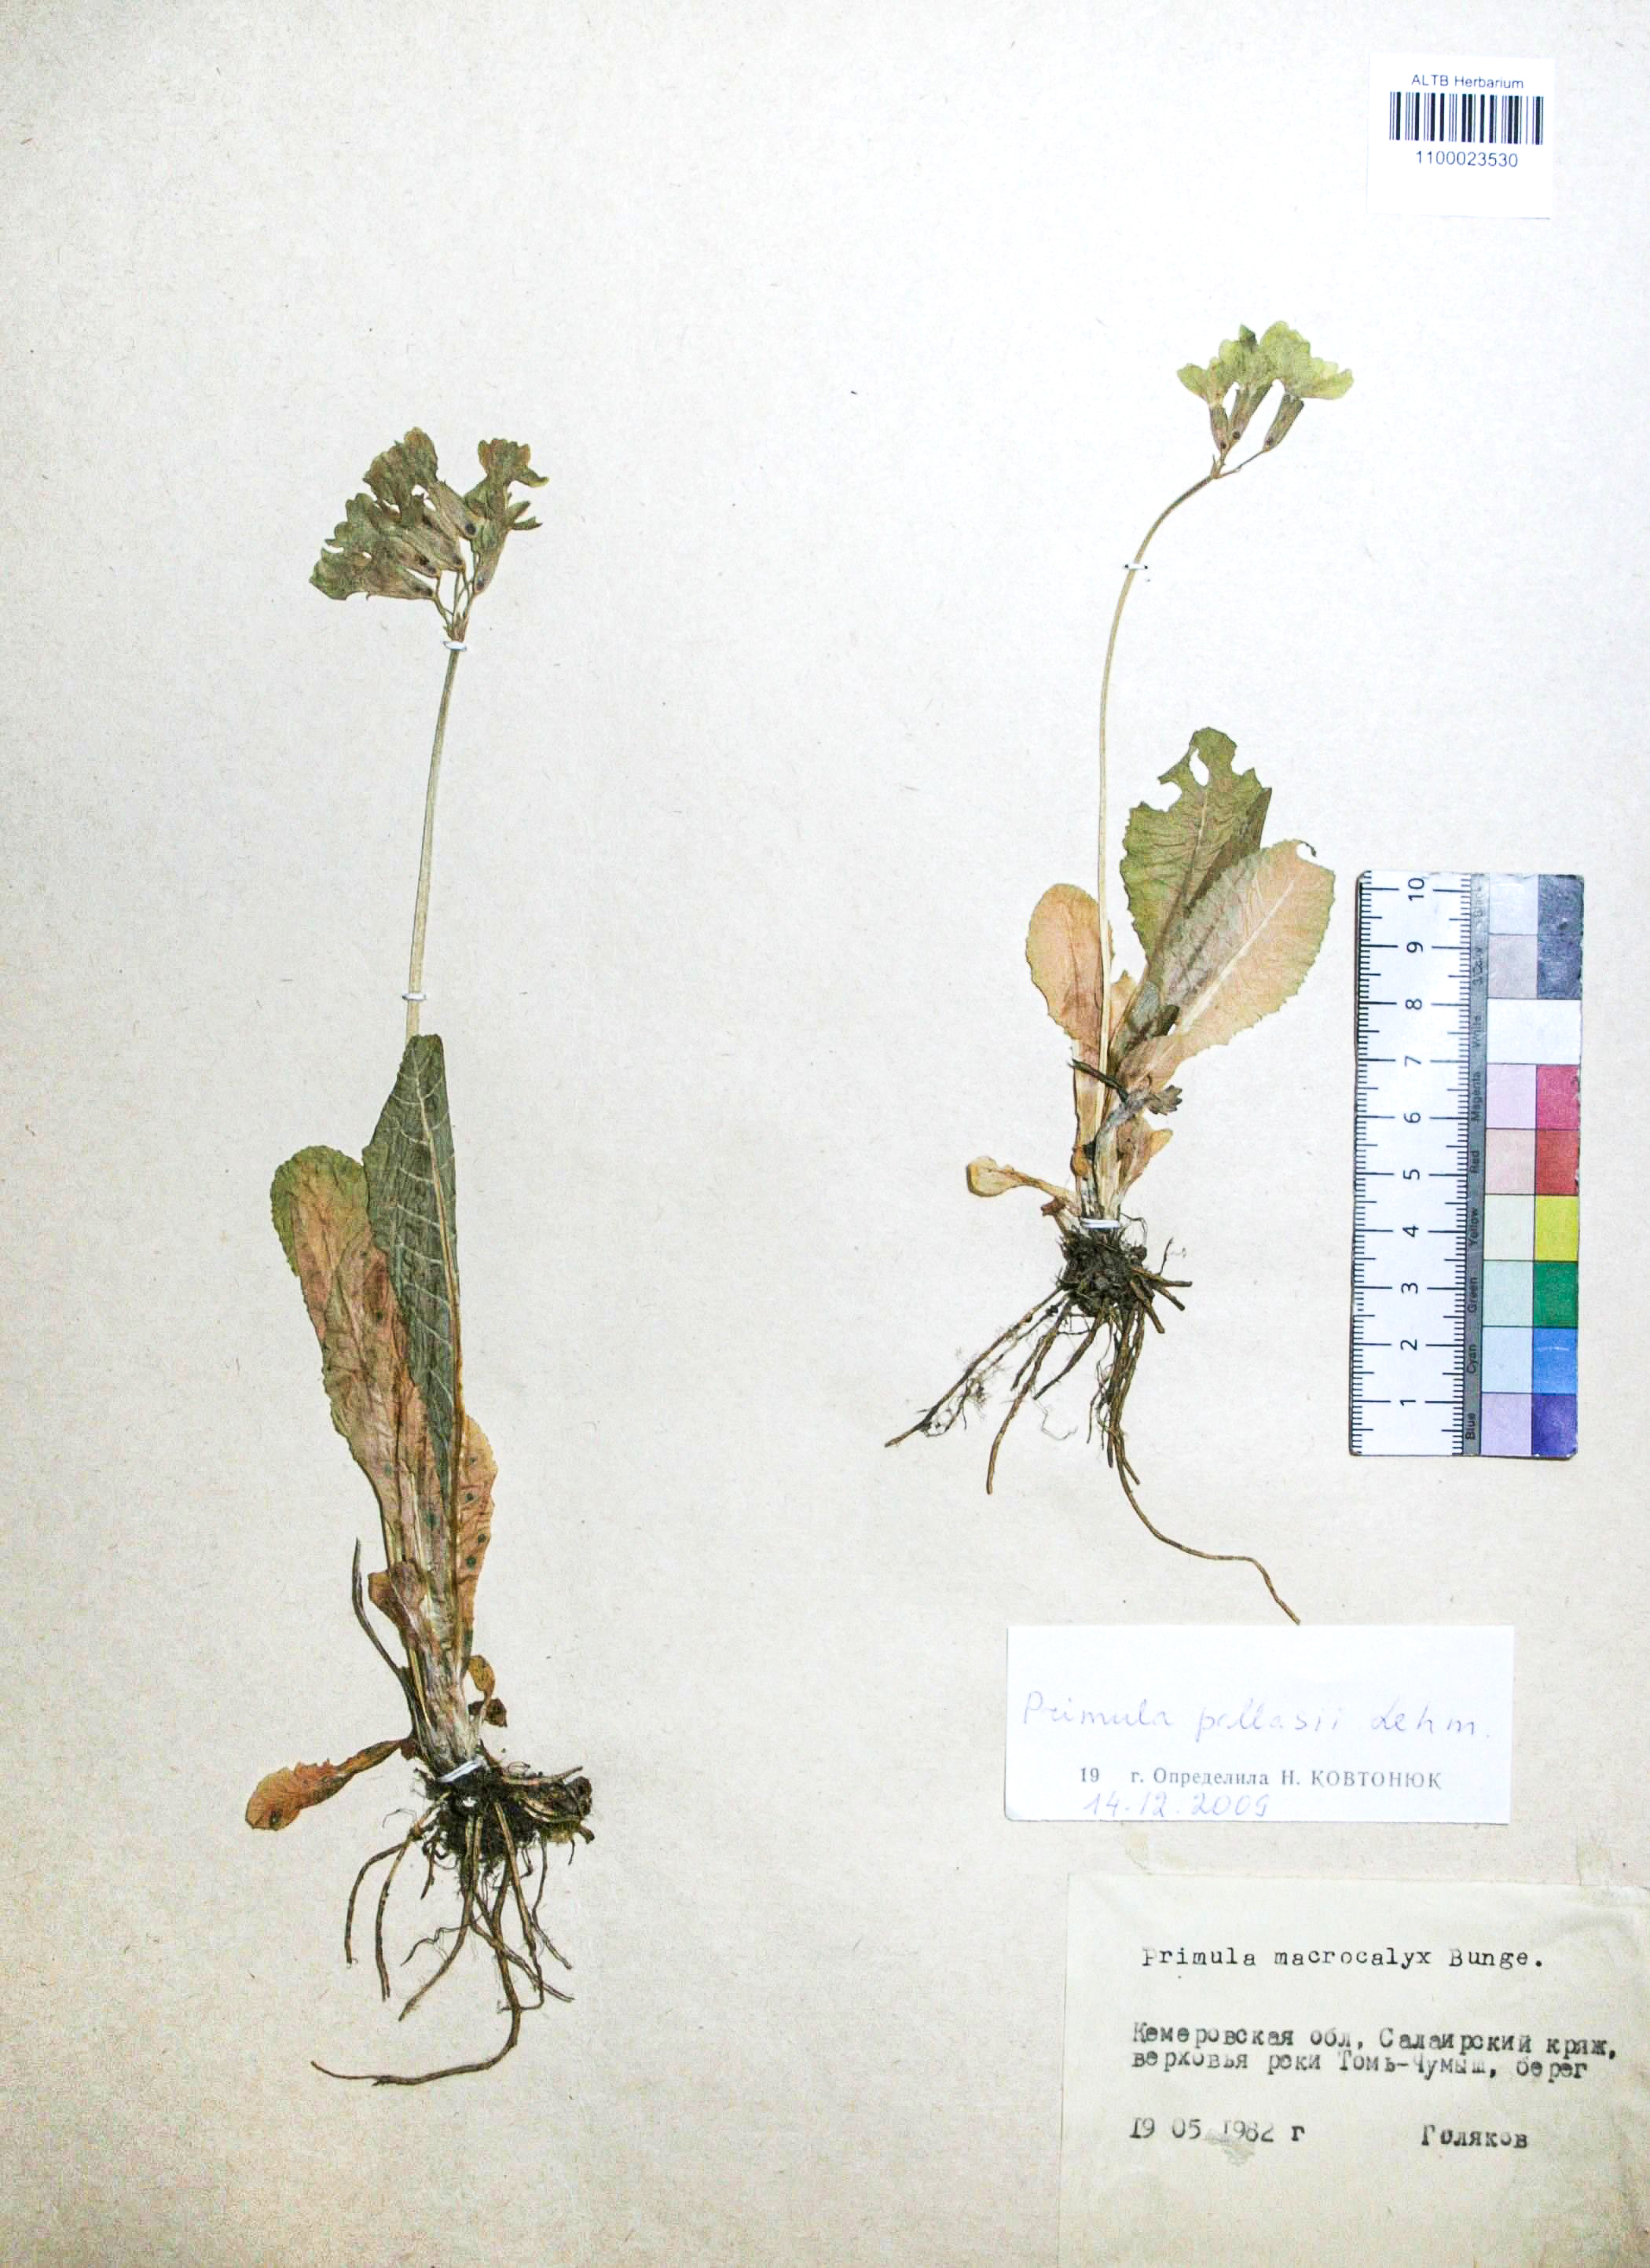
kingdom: Plantae
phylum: Tracheophyta
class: Magnoliopsida
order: Ericales
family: Primulaceae
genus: Primula
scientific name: Primula elatior
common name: Oxlip
